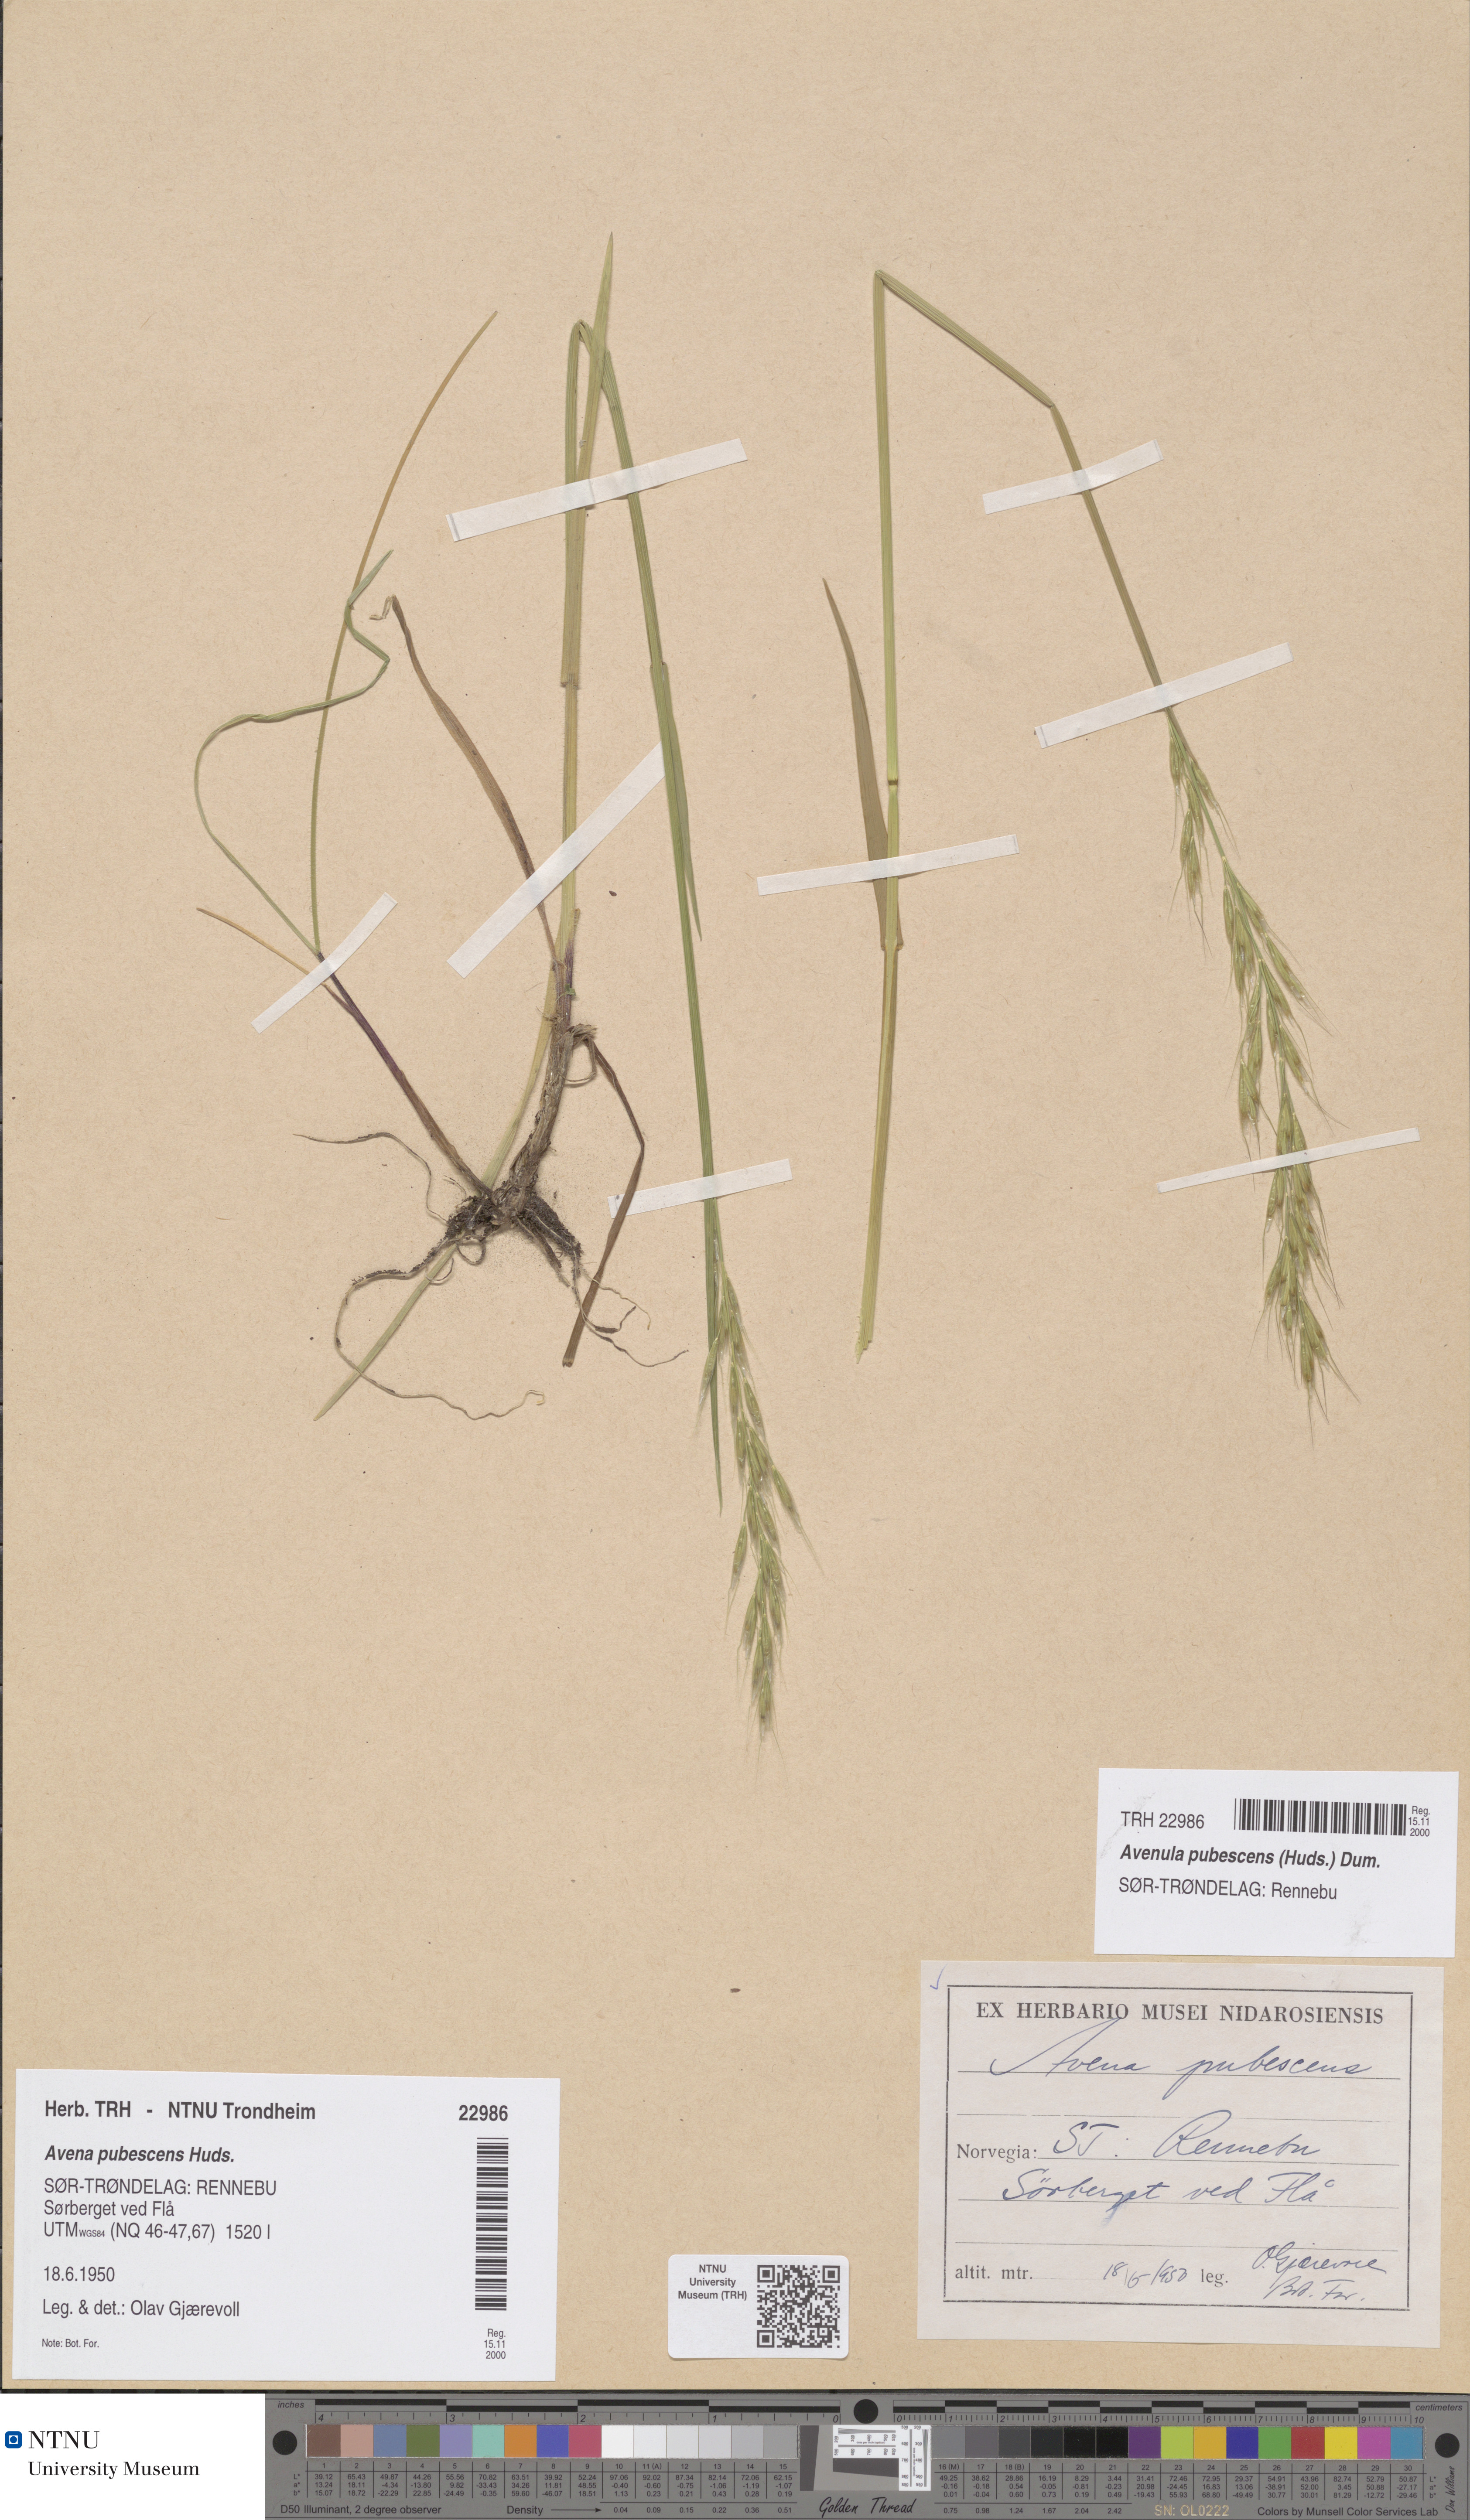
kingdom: Plantae
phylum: Tracheophyta
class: Liliopsida
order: Poales
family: Poaceae
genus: Avenula
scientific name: Avenula pubescens
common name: Downy alpine oatgrass
